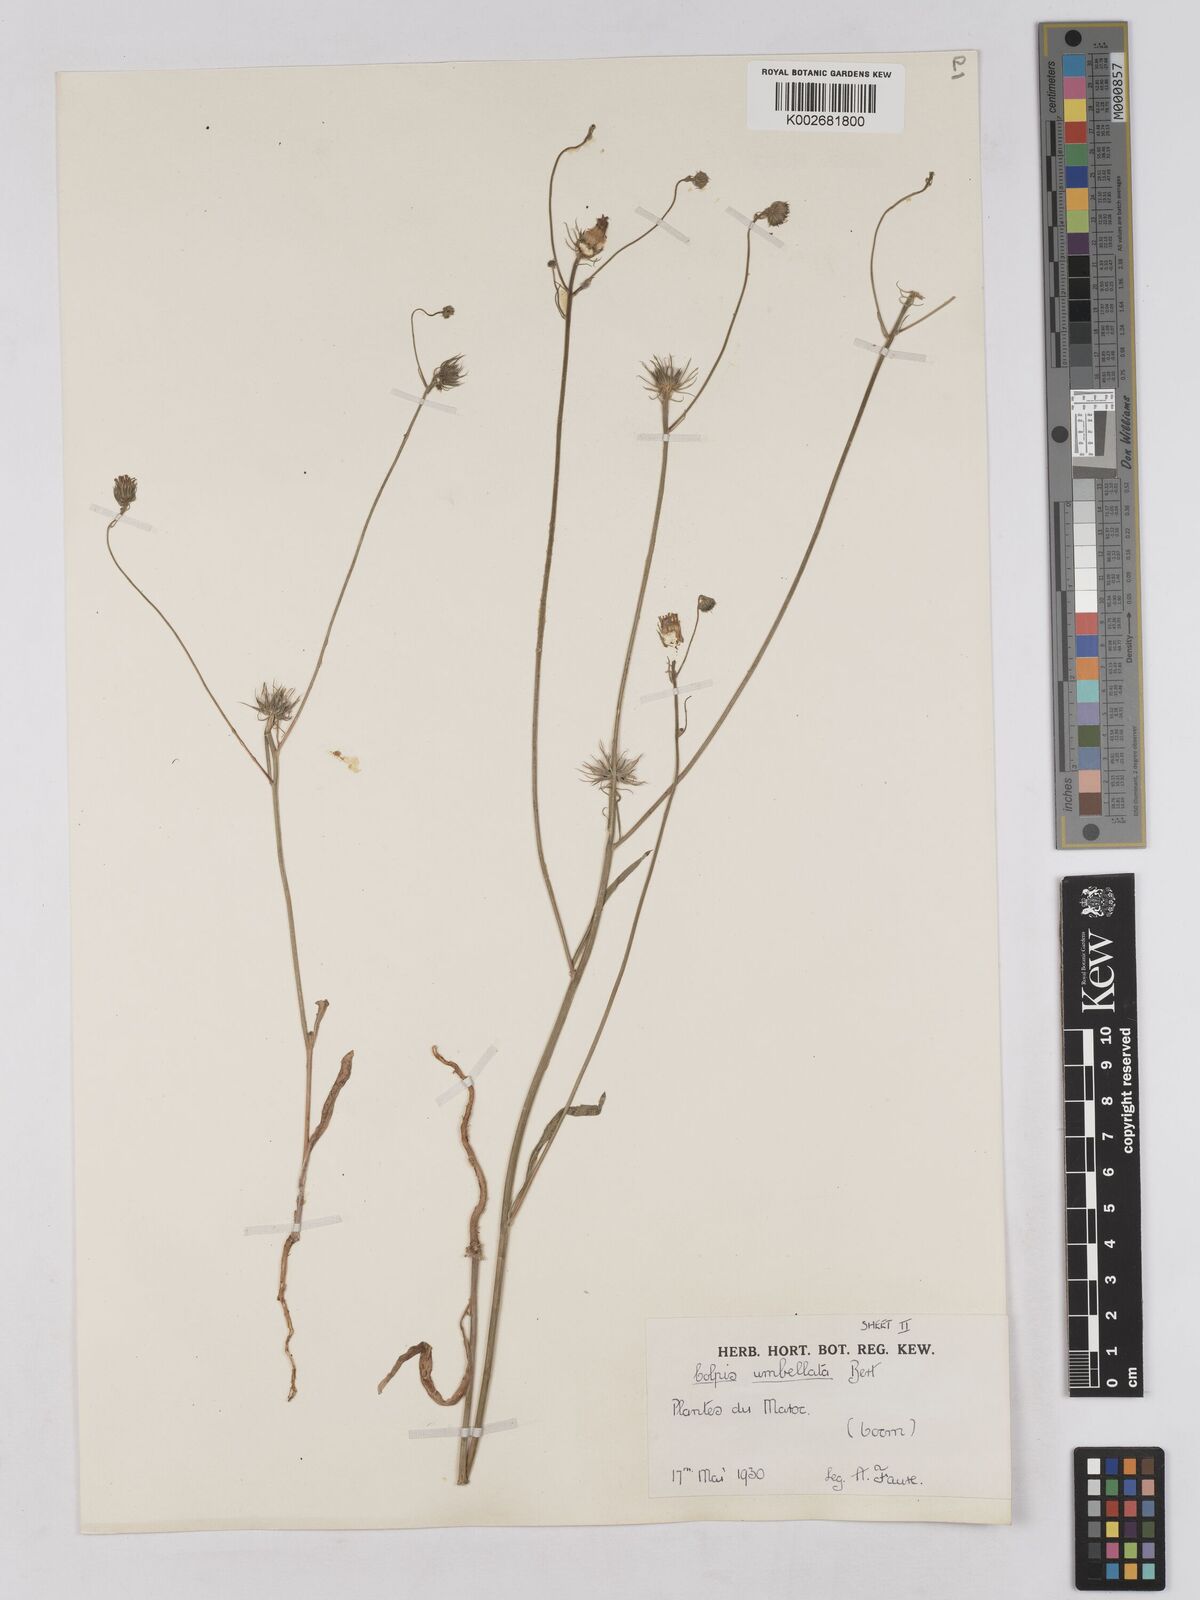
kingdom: Plantae
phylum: Tracheophyta
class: Magnoliopsida
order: Asterales
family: Asteraceae
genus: Tolpis
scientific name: Tolpis umbellata
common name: Yellow hawkweed
